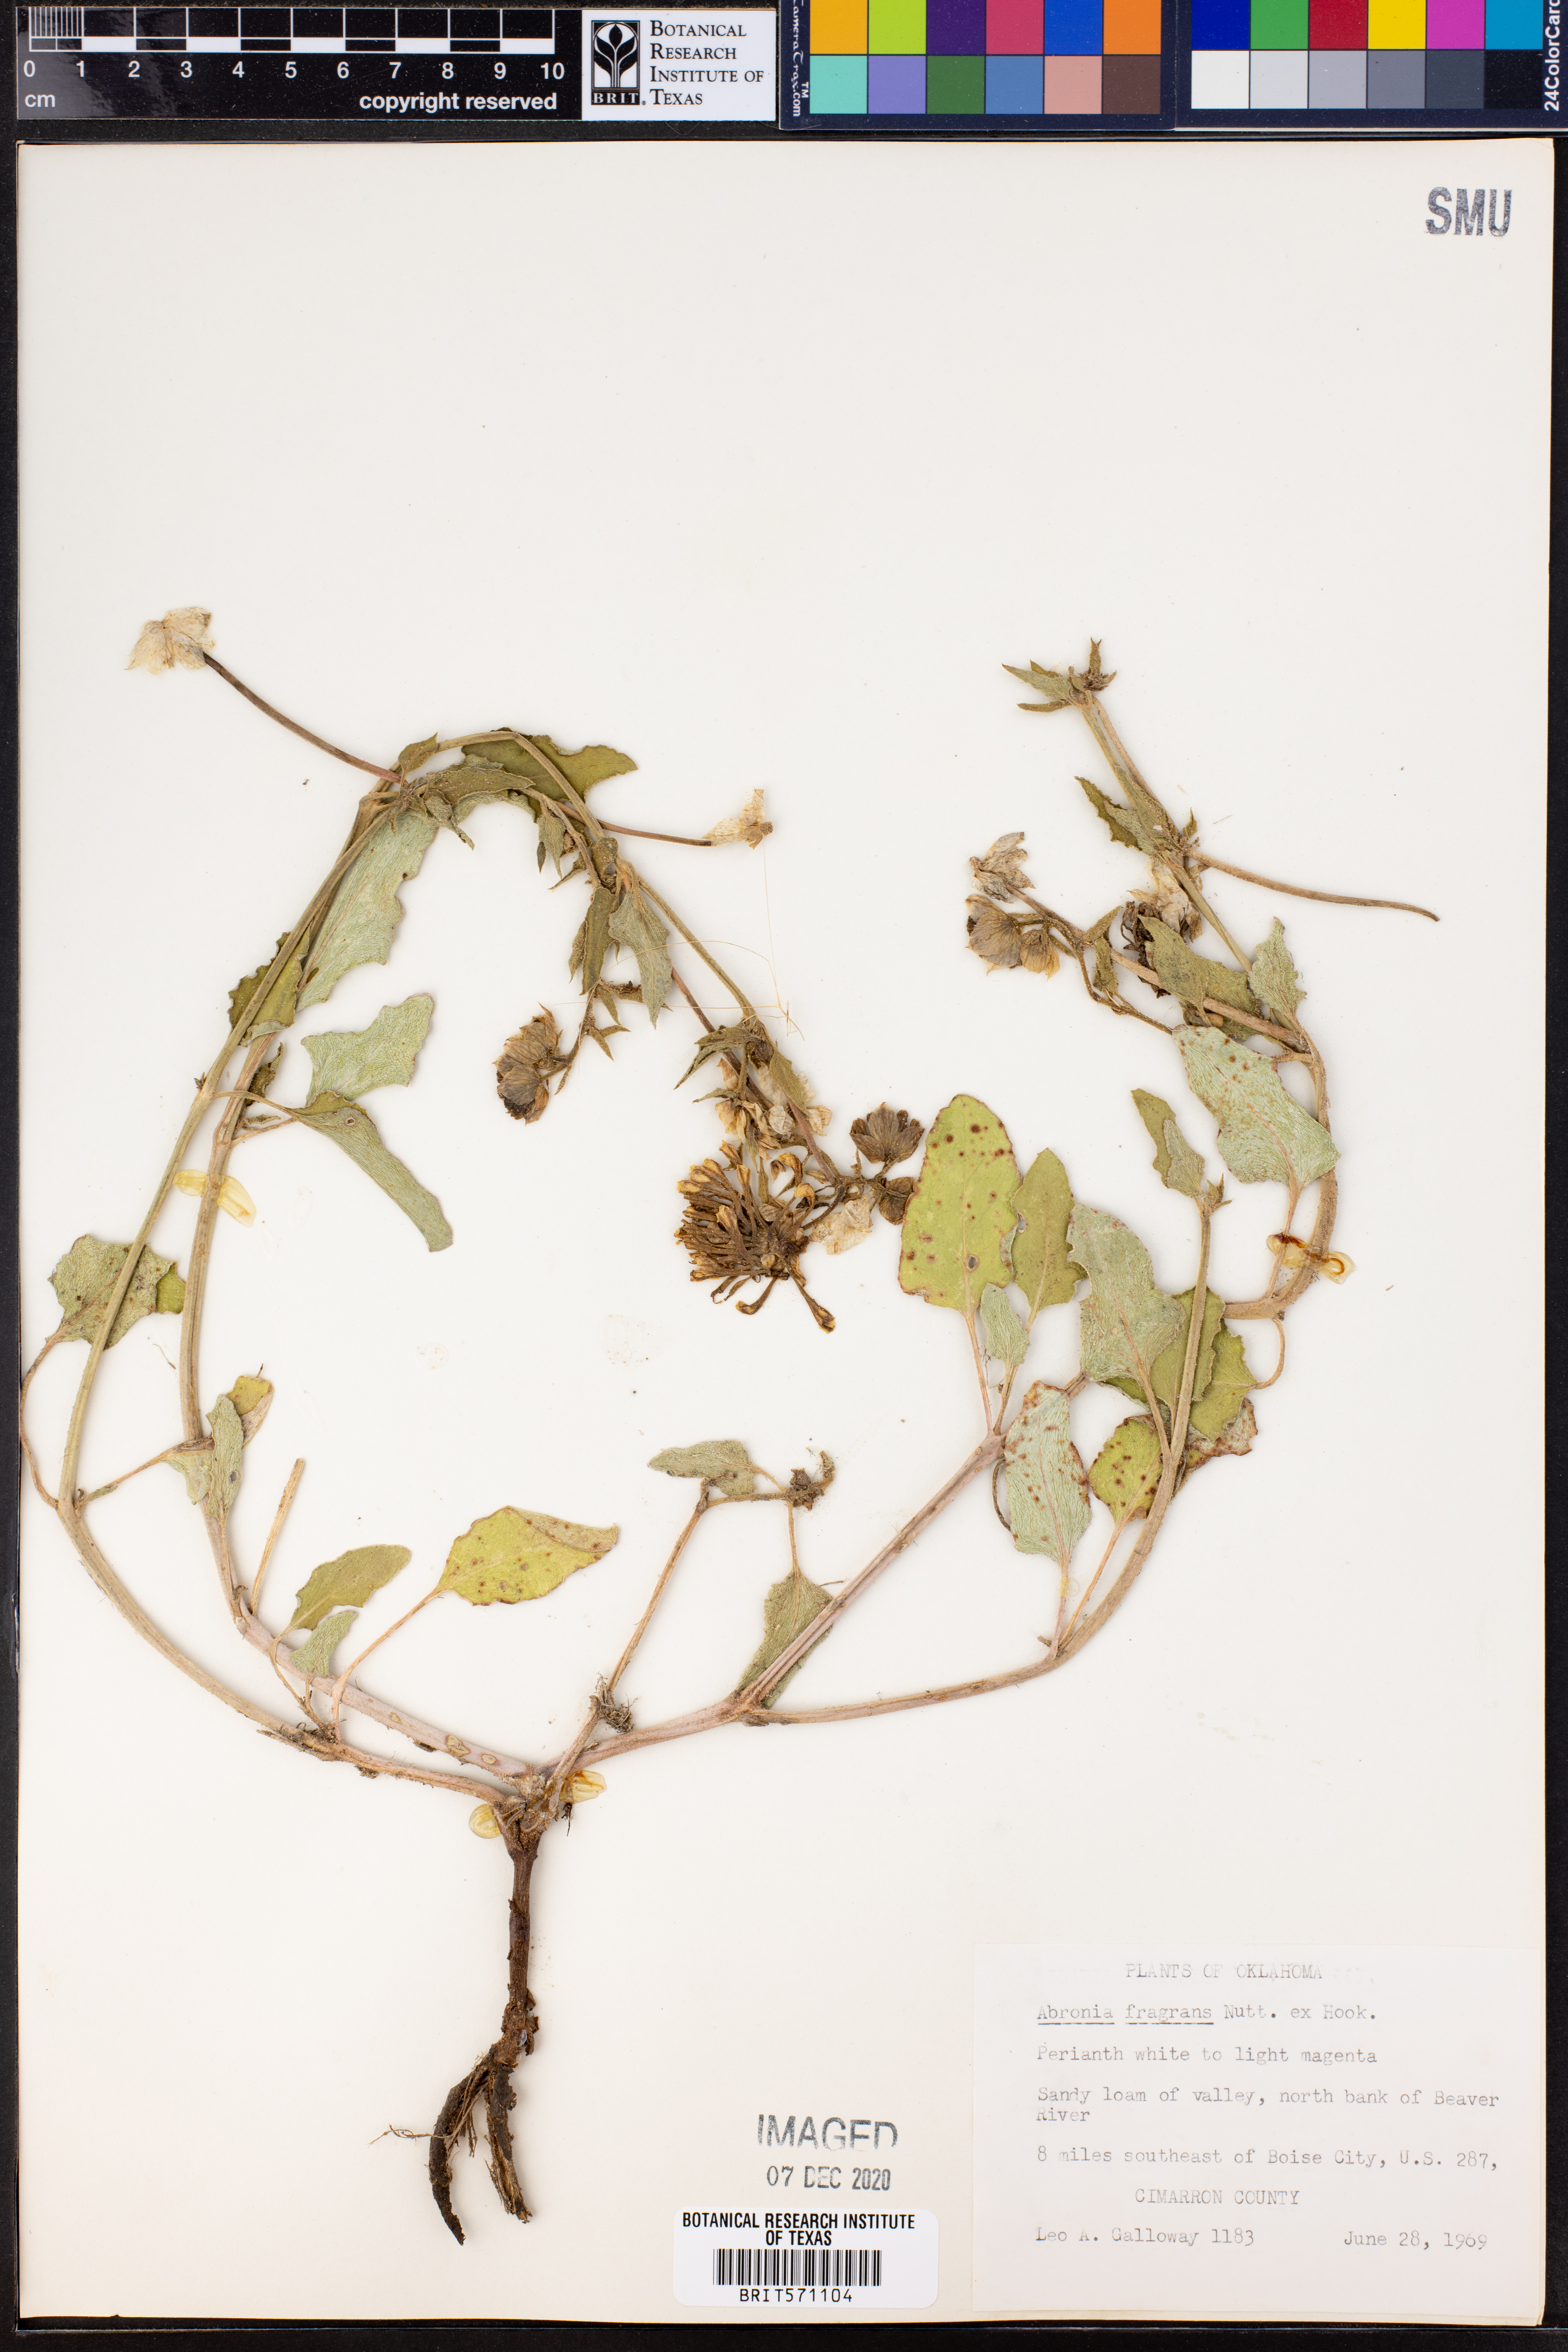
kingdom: Plantae
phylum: Tracheophyta
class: Magnoliopsida
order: Caryophyllales
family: Nyctaginaceae
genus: Abronia
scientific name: Abronia fragrans
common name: Fragrant sand-verbena
